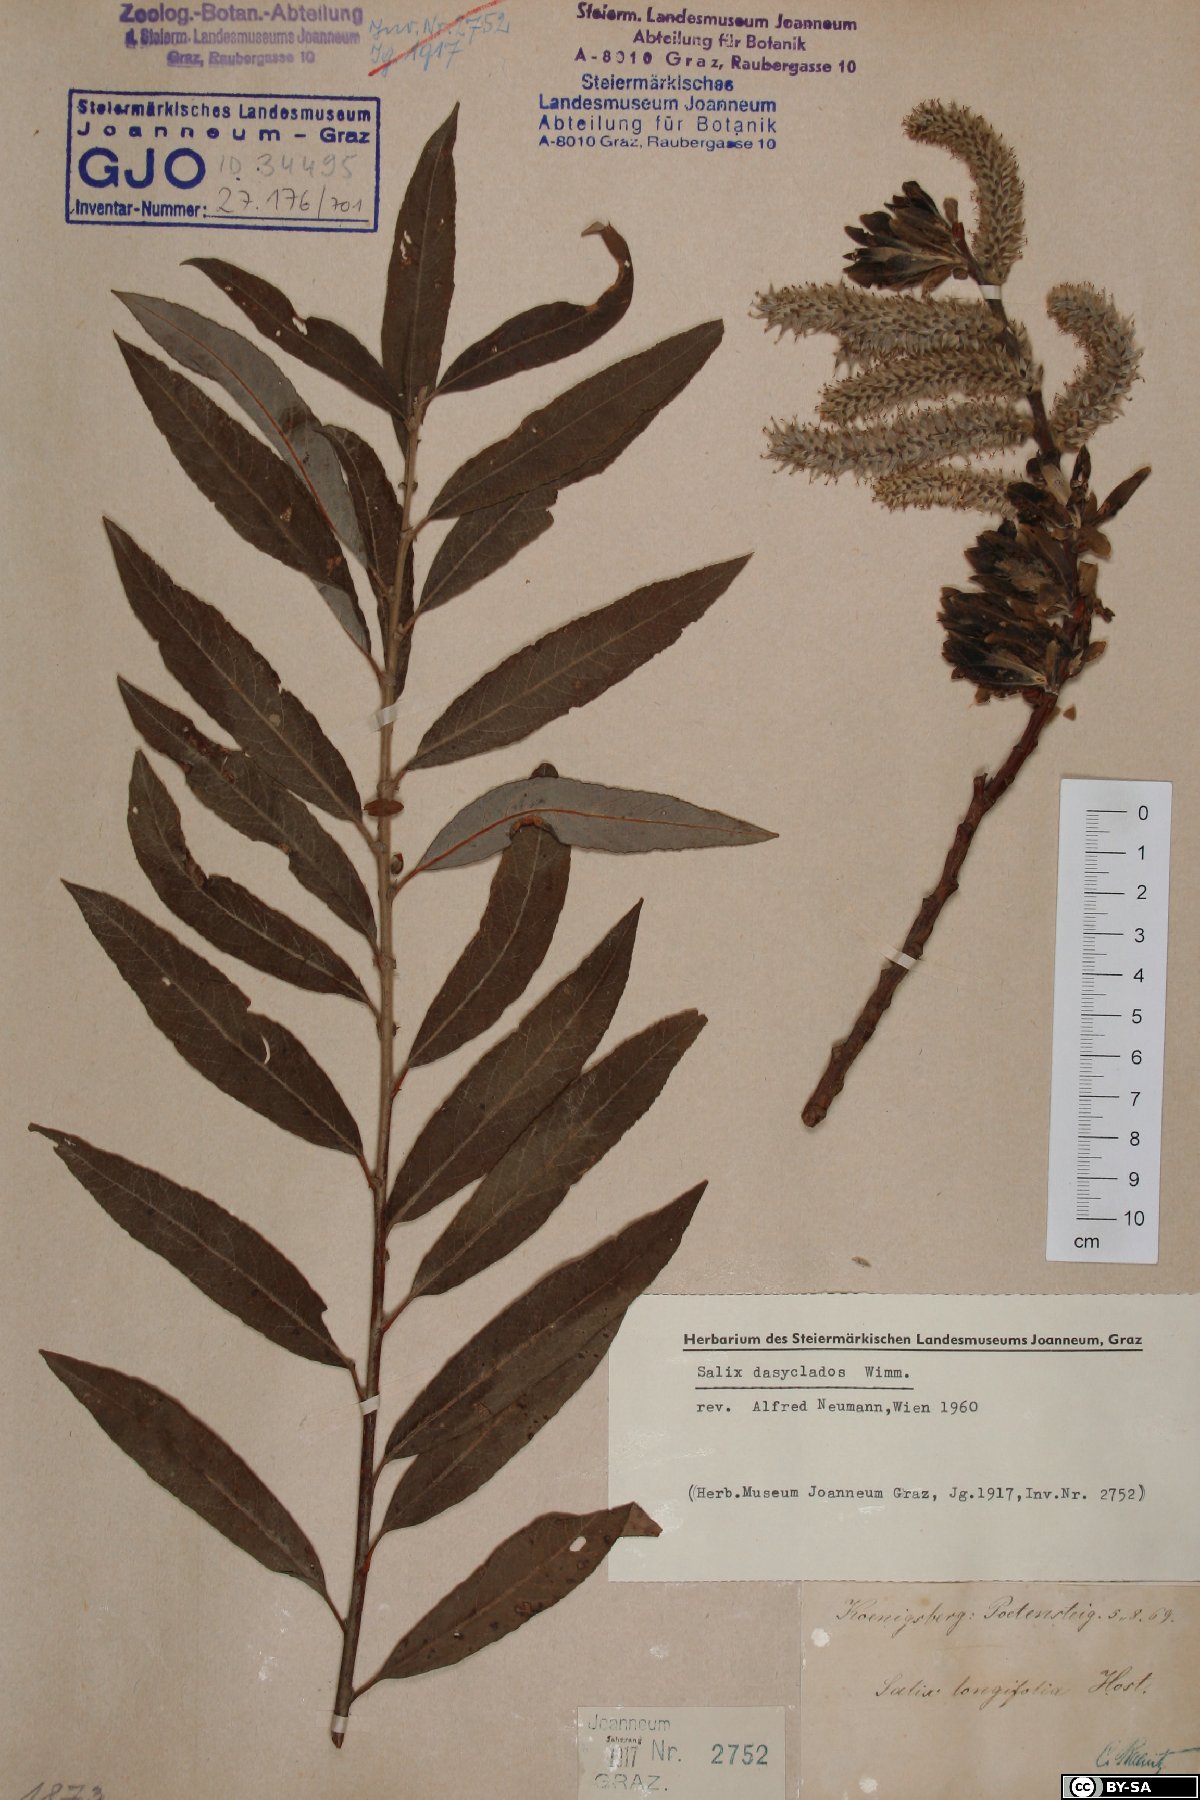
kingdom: Plantae
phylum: Tracheophyta
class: Magnoliopsida
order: Malpighiales
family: Salicaceae
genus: Salix
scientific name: Salix gmelinii
